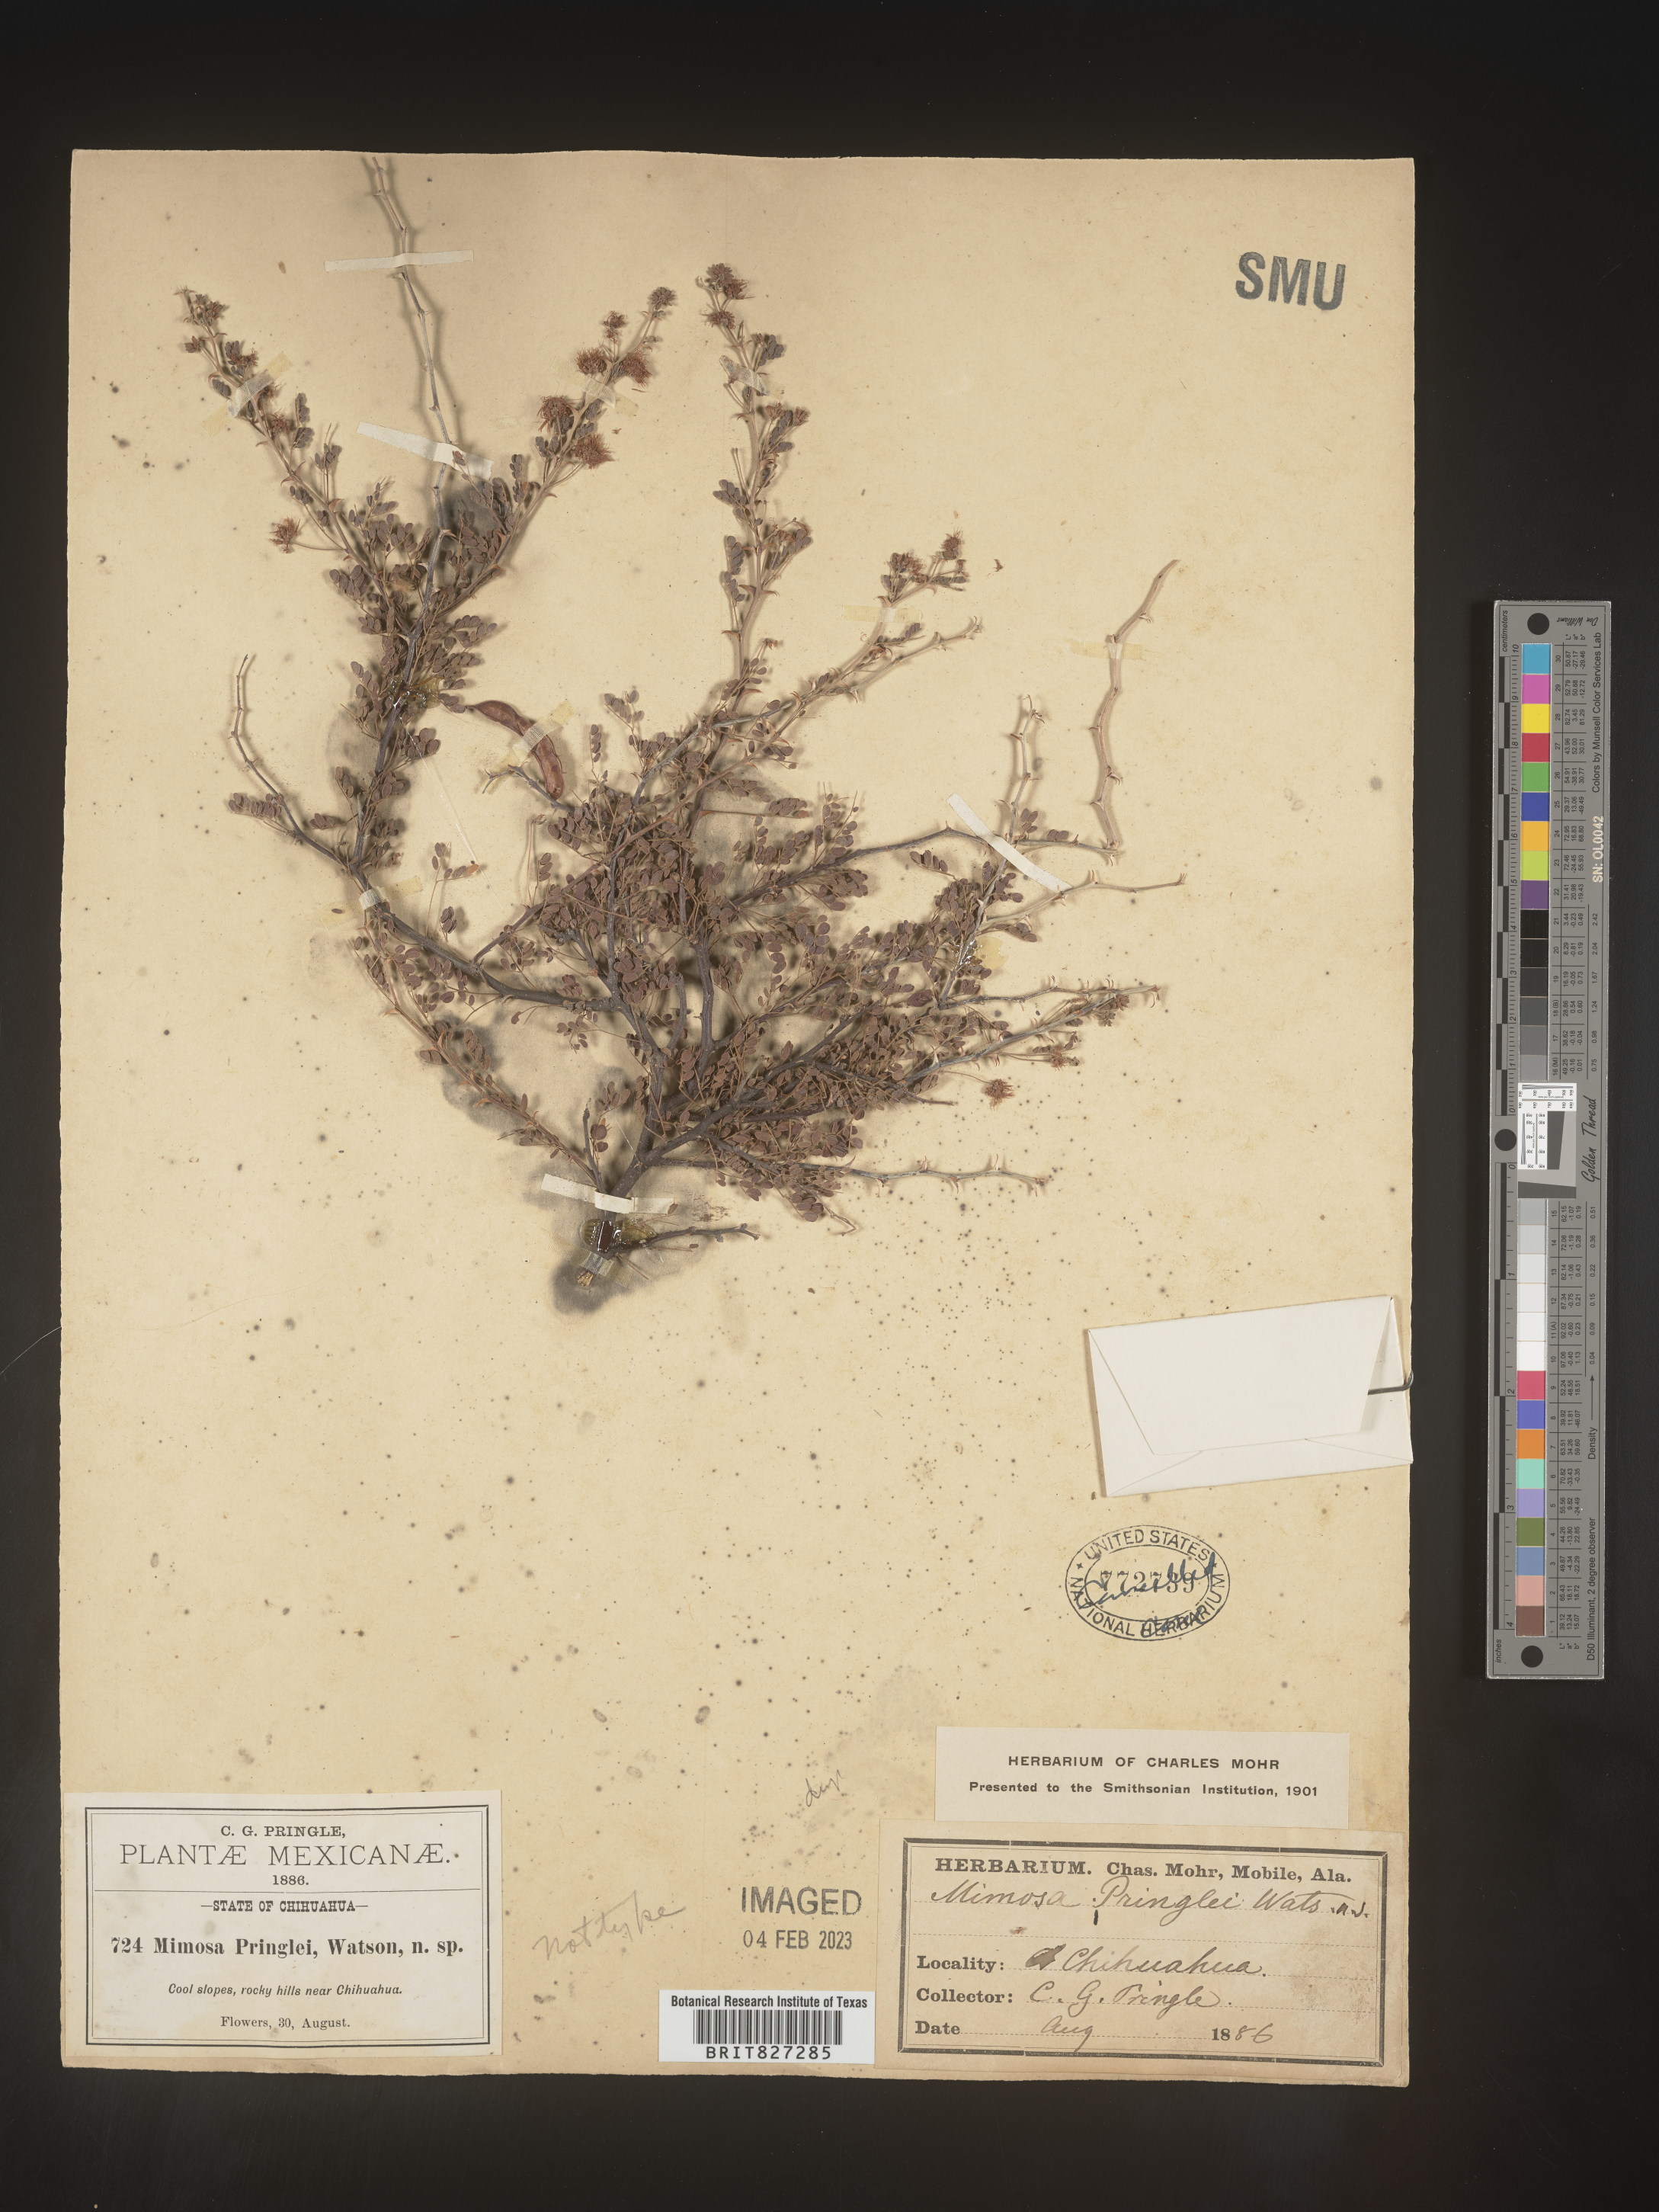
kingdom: Plantae
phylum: Tracheophyta
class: Magnoliopsida
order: Fabales
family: Fabaceae
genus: Mimosa
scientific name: Mimosa
